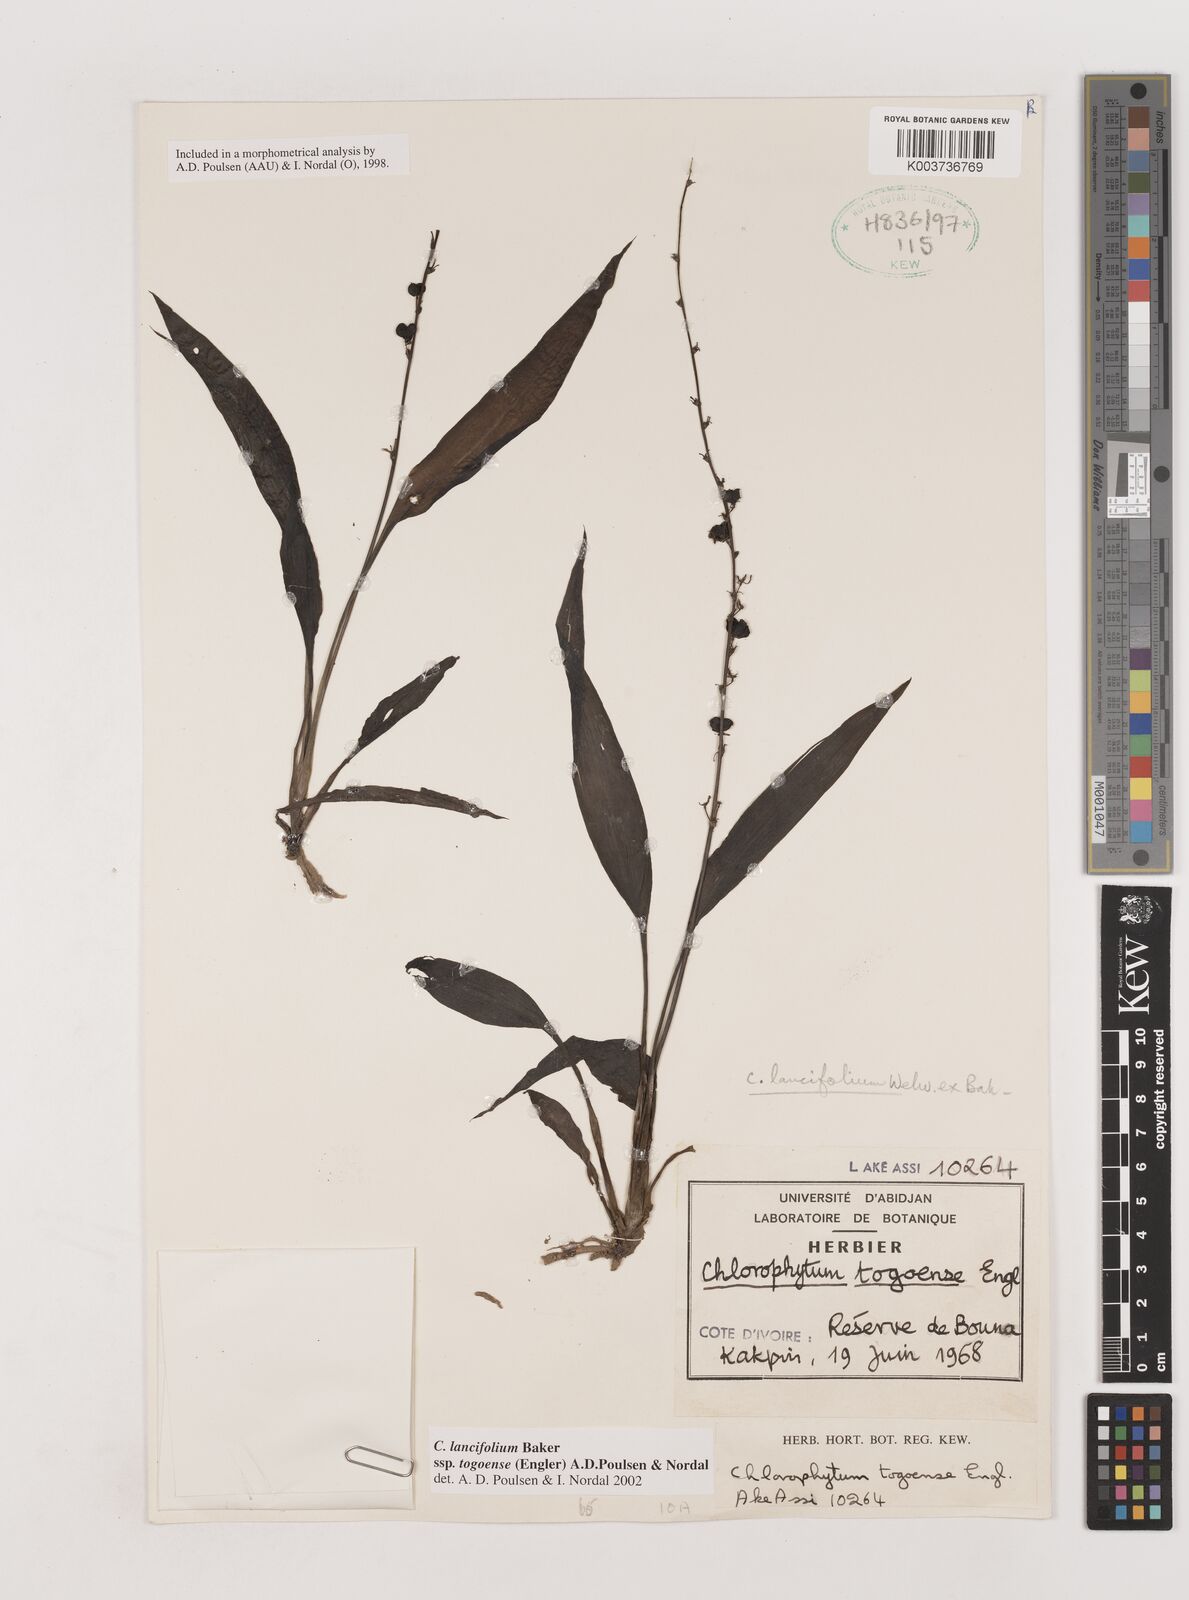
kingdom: Plantae
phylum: Tracheophyta
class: Liliopsida
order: Asparagales
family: Asparagaceae
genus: Chlorophytum
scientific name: Chlorophytum lancifolium
